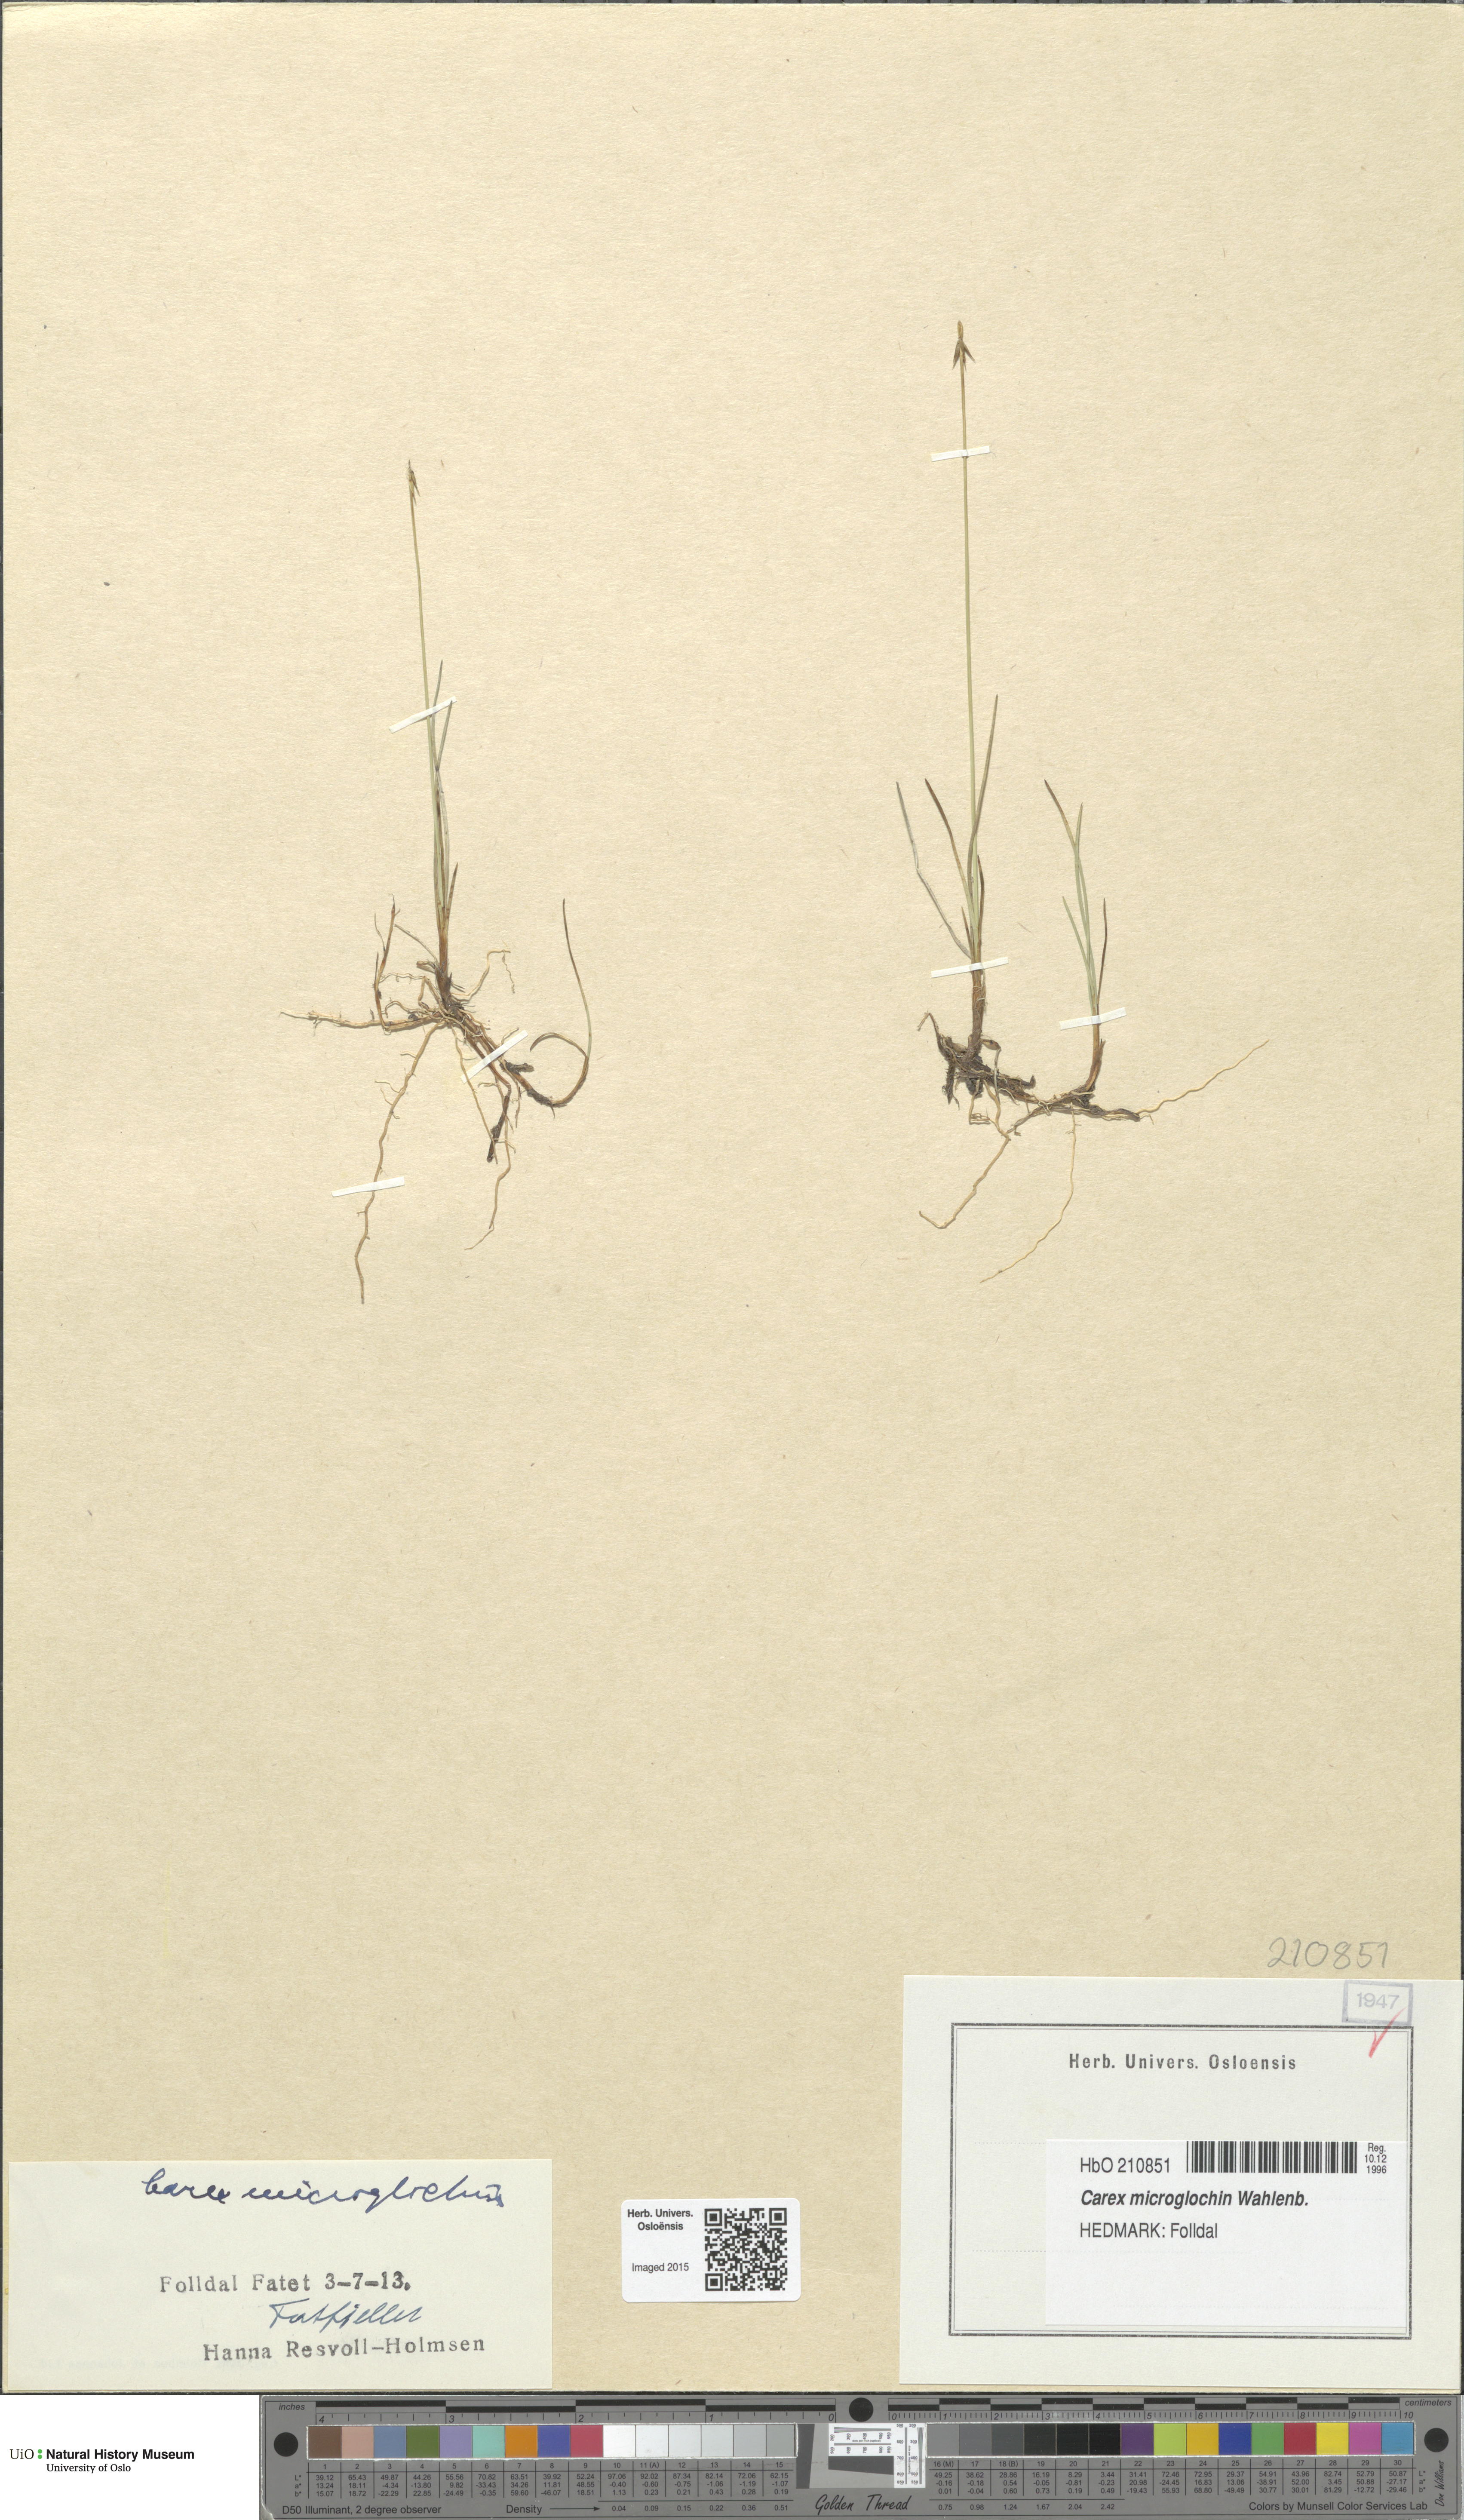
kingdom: Plantae
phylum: Tracheophyta
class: Liliopsida
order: Poales
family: Cyperaceae
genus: Carex
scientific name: Carex microglochin
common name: Bristle sedge
